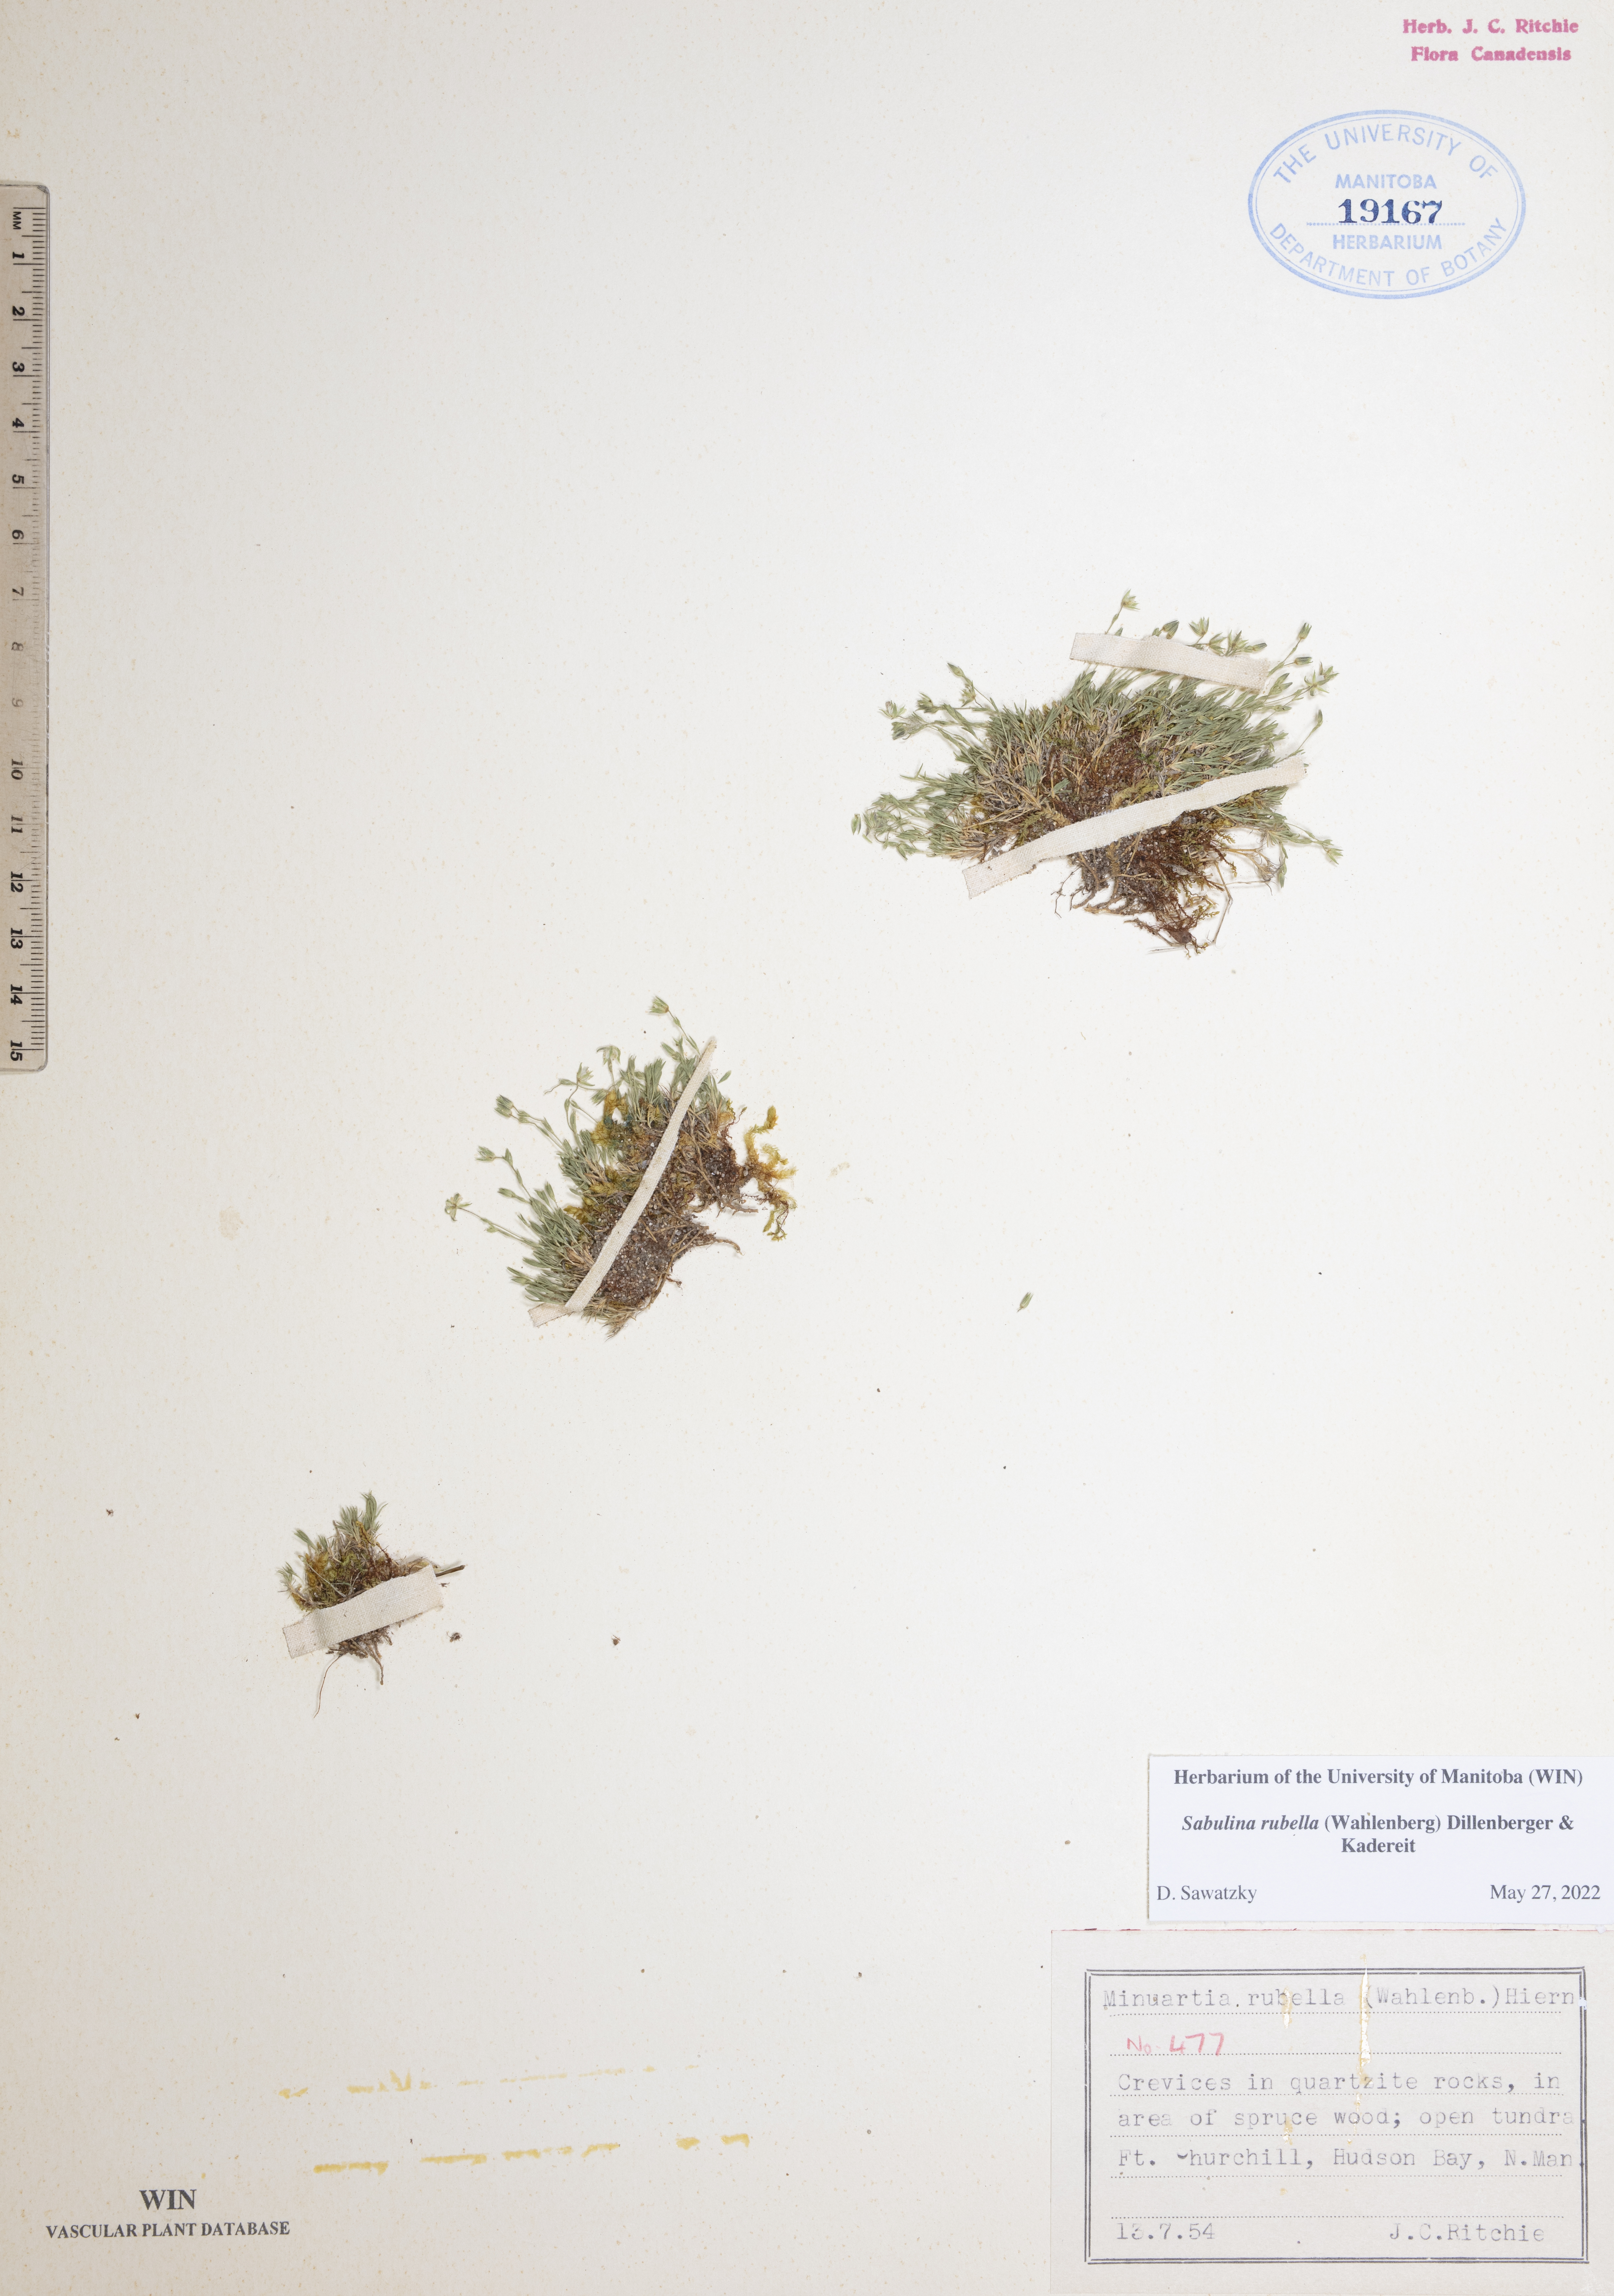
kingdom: Plantae
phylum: Tracheophyta
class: Magnoliopsida
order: Caryophyllales
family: Caryophyllaceae
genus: Sabulina
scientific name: Sabulina rubella
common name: Beautiful sandwort
